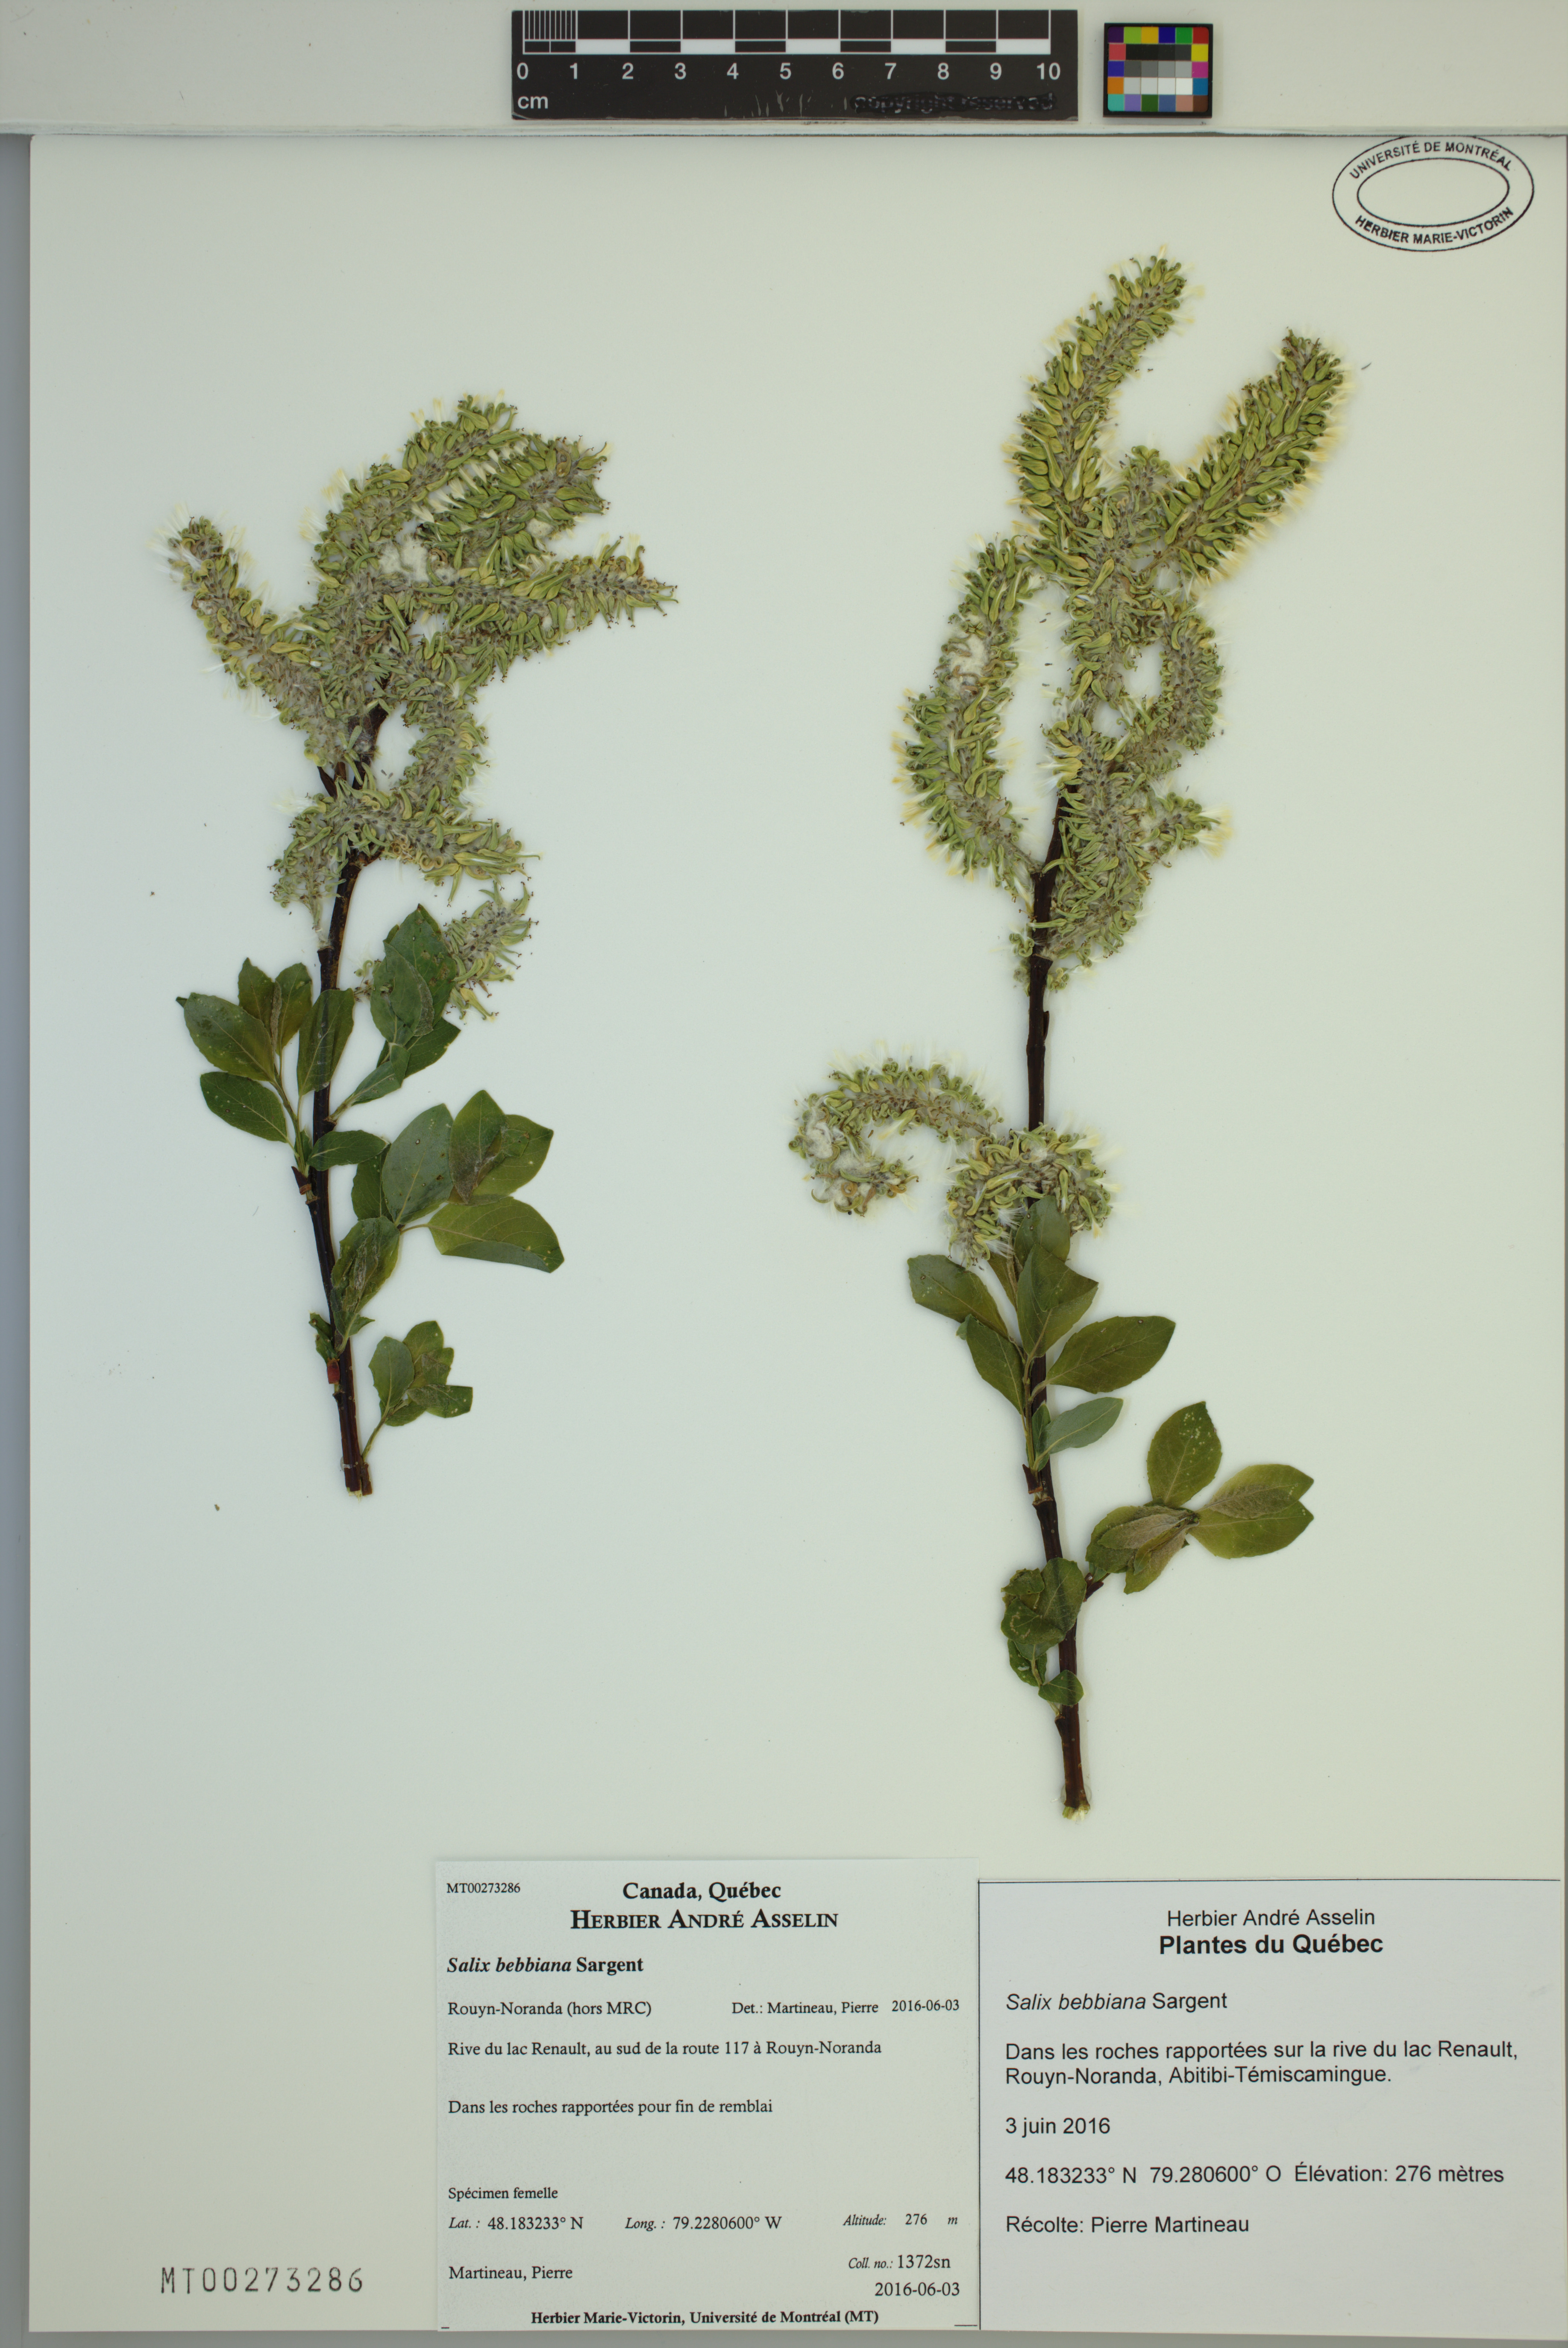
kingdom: Plantae
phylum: Tracheophyta
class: Magnoliopsida
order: Malpighiales
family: Salicaceae
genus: Salix
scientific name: Salix bebbiana
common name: Bebb's willow
